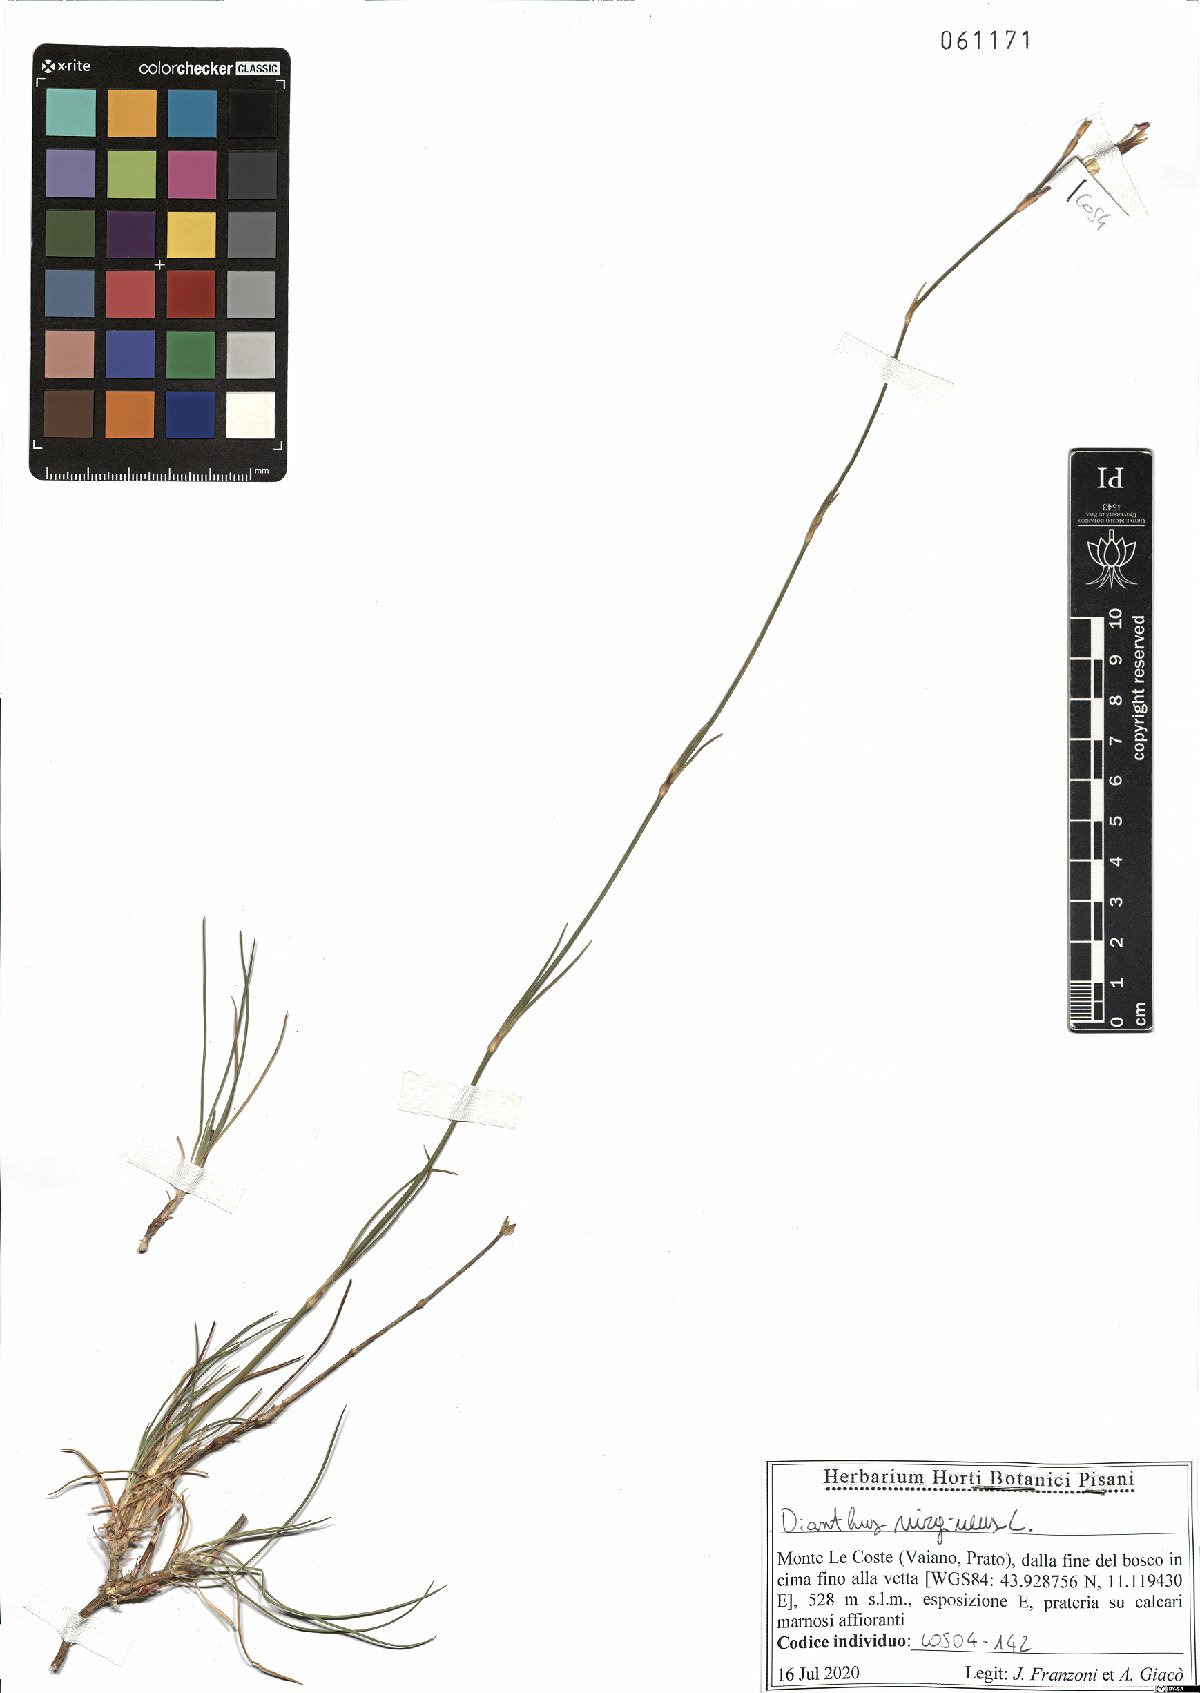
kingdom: Plantae
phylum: Tracheophyta
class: Magnoliopsida
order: Caryophyllales
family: Caryophyllaceae
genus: Dianthus
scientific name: Dianthus virgineus
